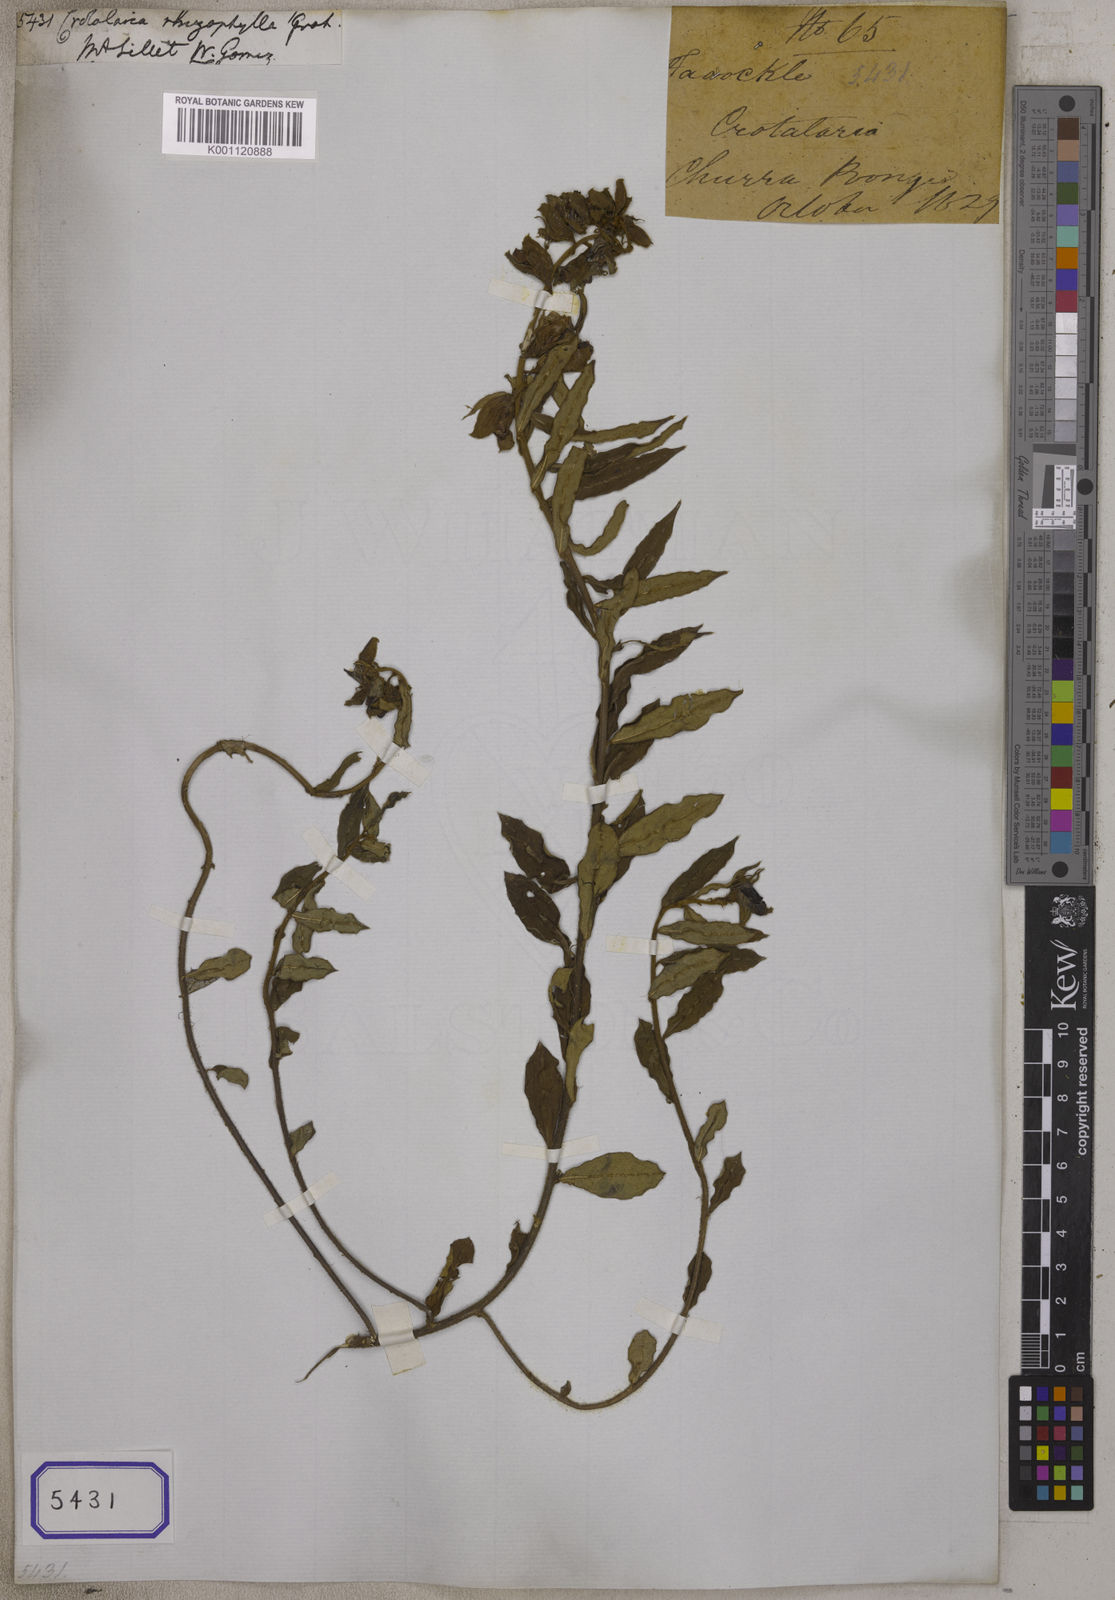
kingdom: Plantae
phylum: Tracheophyta
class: Magnoliopsida
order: Fabales
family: Fabaceae
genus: Crotalaria
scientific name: Crotalaria occulta
